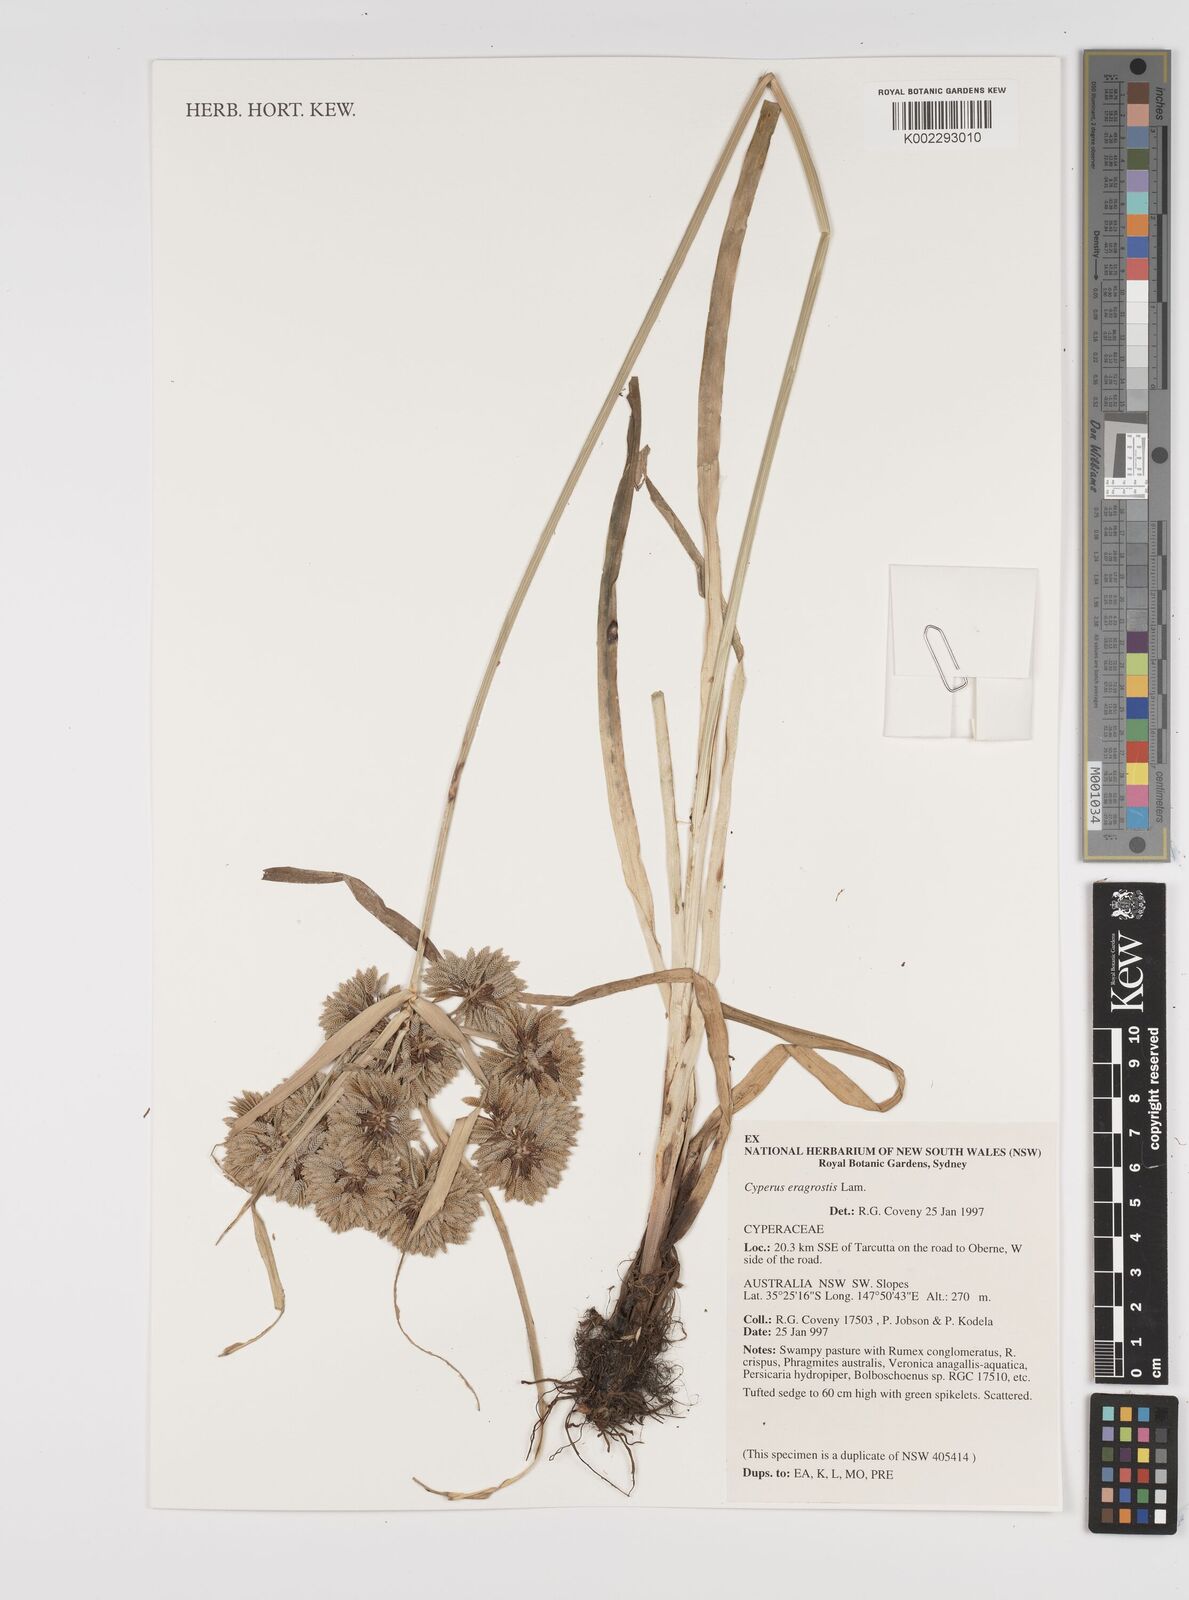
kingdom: Plantae
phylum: Tracheophyta
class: Liliopsida
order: Poales
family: Cyperaceae
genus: Cyperus
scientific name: Cyperus eragrostis
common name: Tall flatsedge
